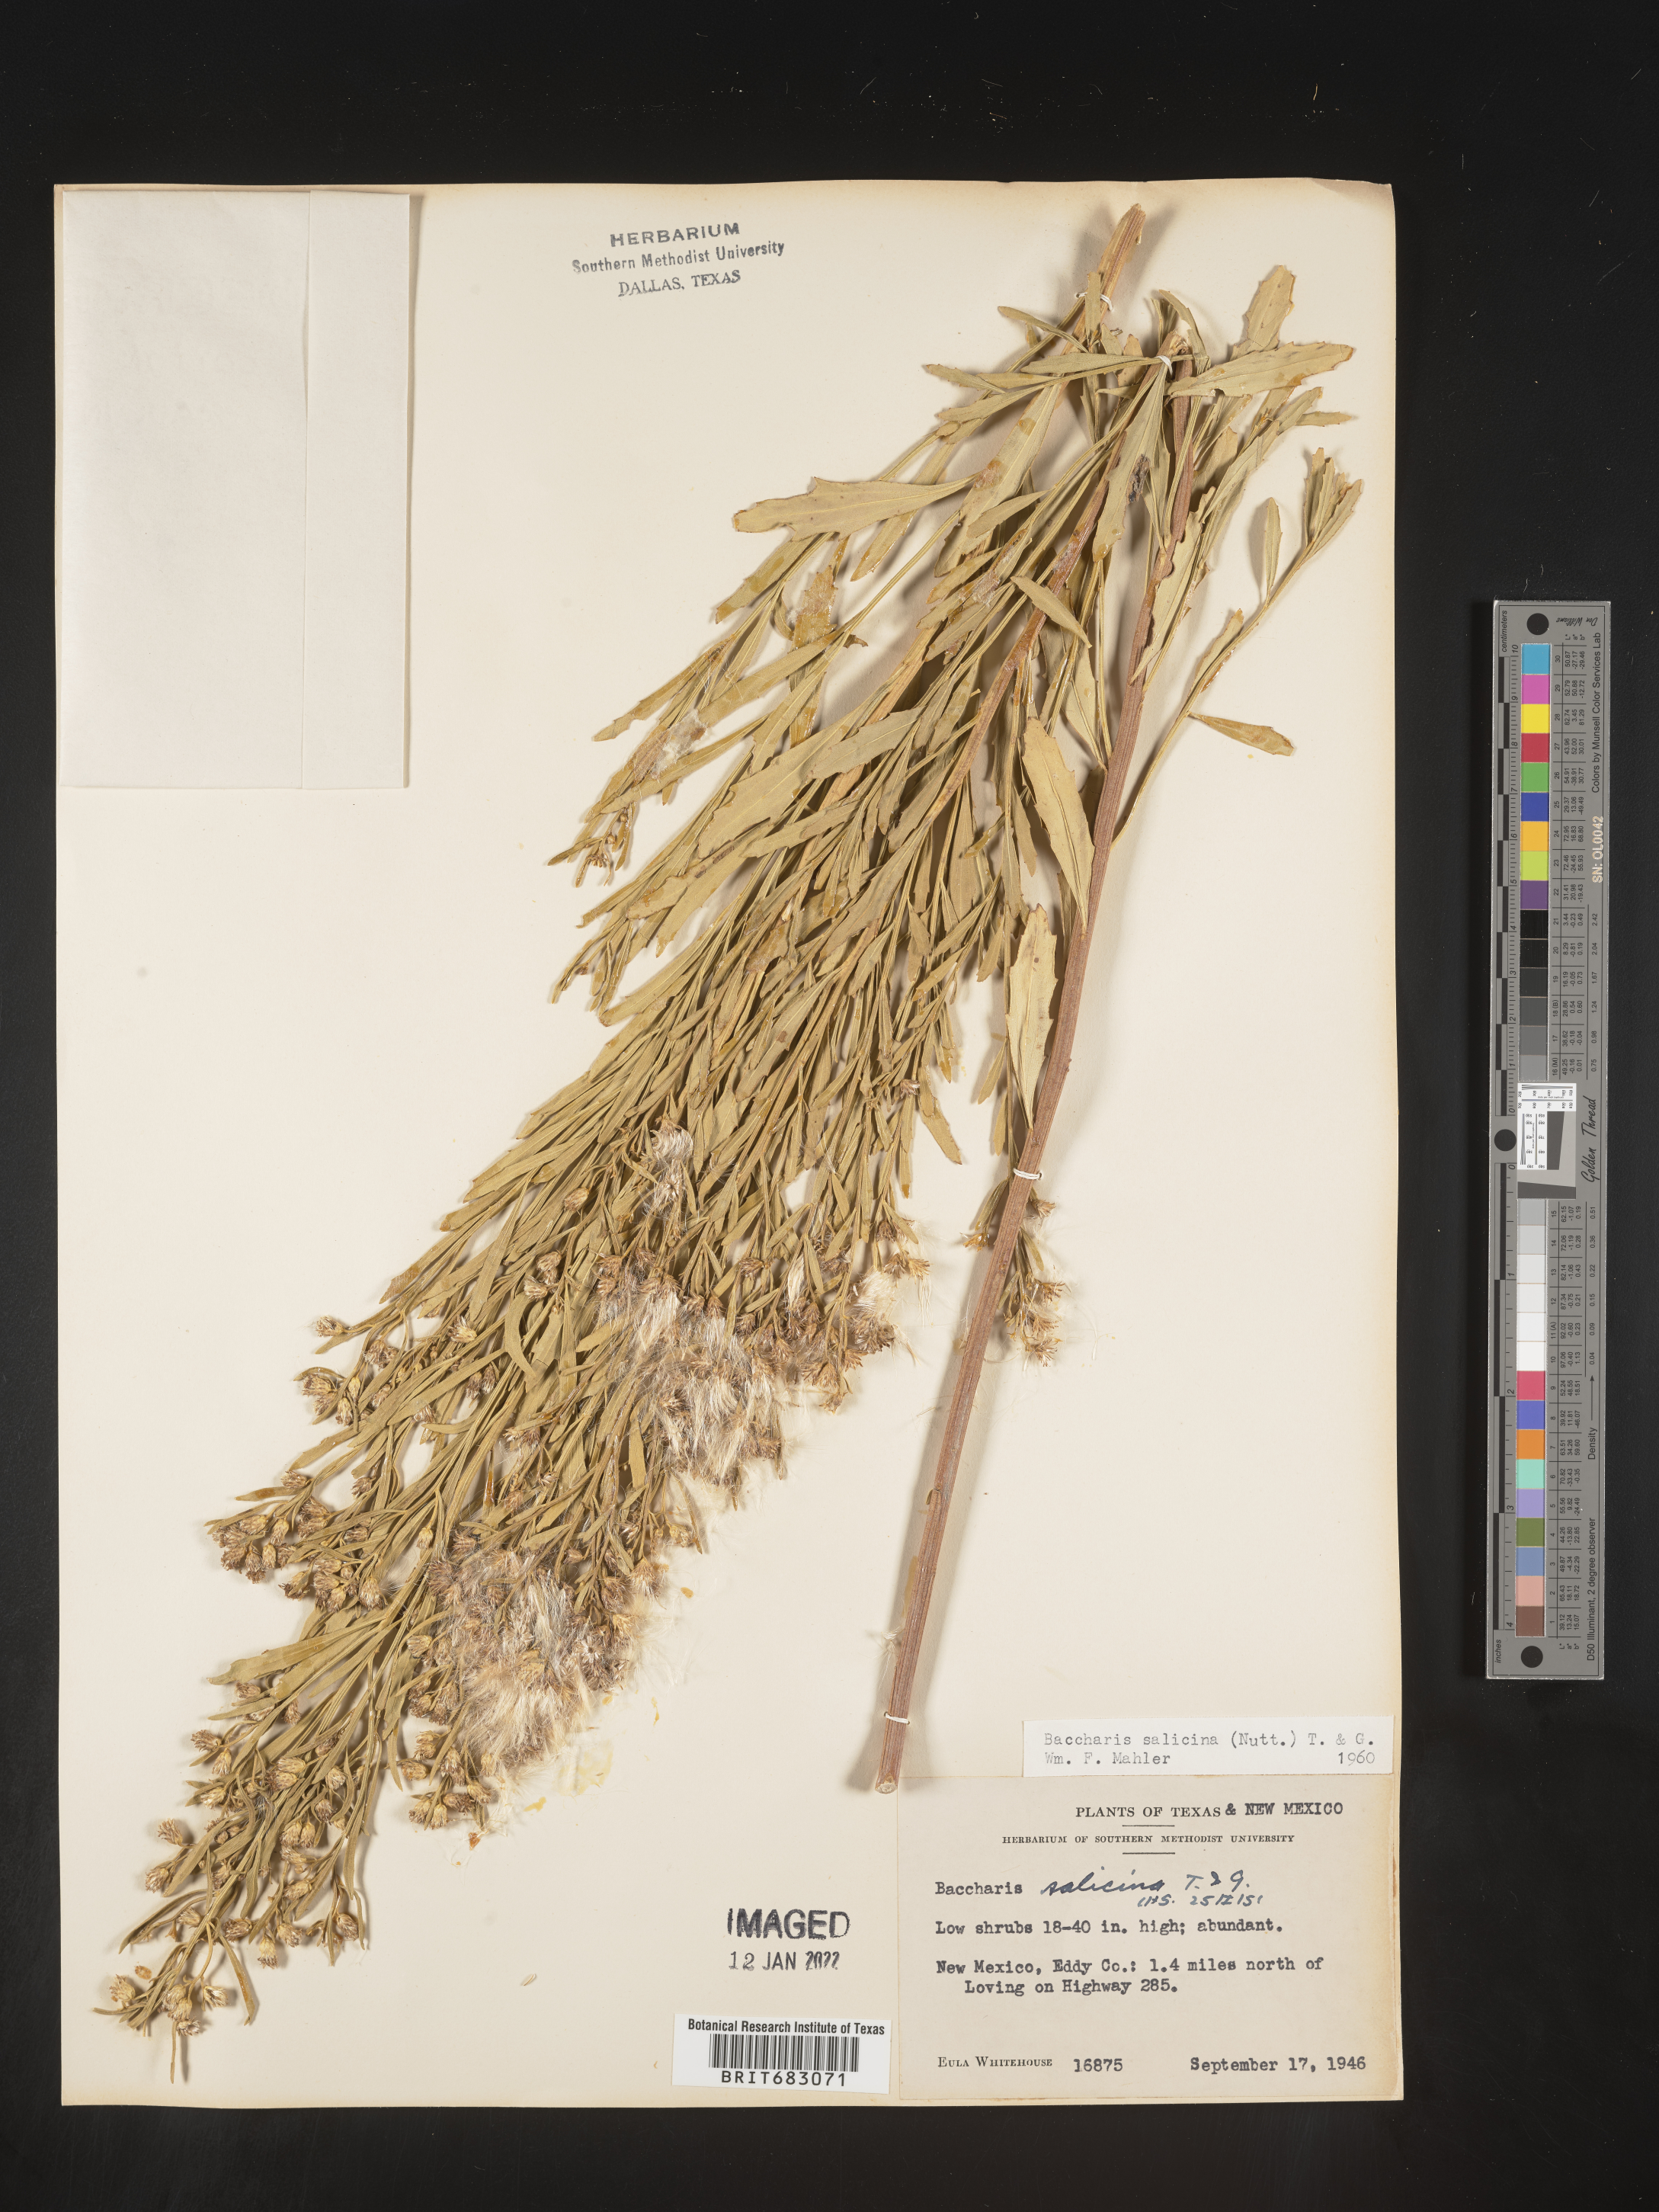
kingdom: Plantae
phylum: Tracheophyta
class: Magnoliopsida
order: Asterales
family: Asteraceae
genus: Baccharis
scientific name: Baccharis salicina
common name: Willow baccharis
